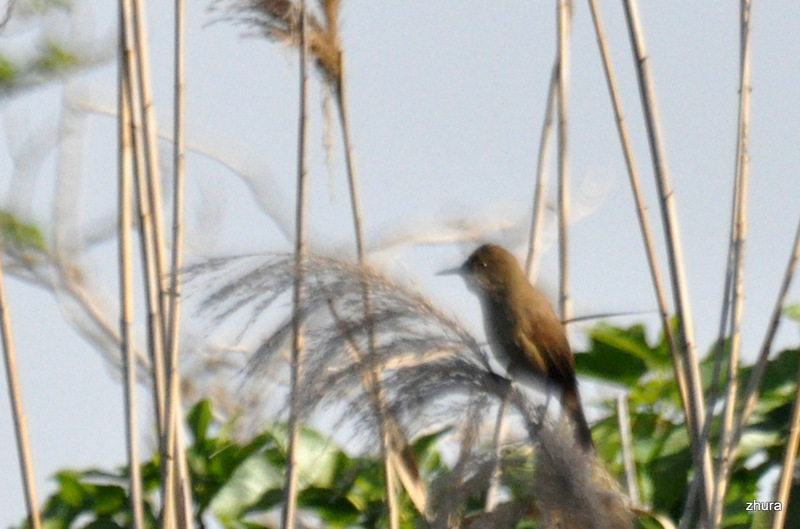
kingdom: Animalia
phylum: Chordata
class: Aves
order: Passeriformes
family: Acrocephalidae
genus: Acrocephalus
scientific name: Acrocephalus stentoreus
